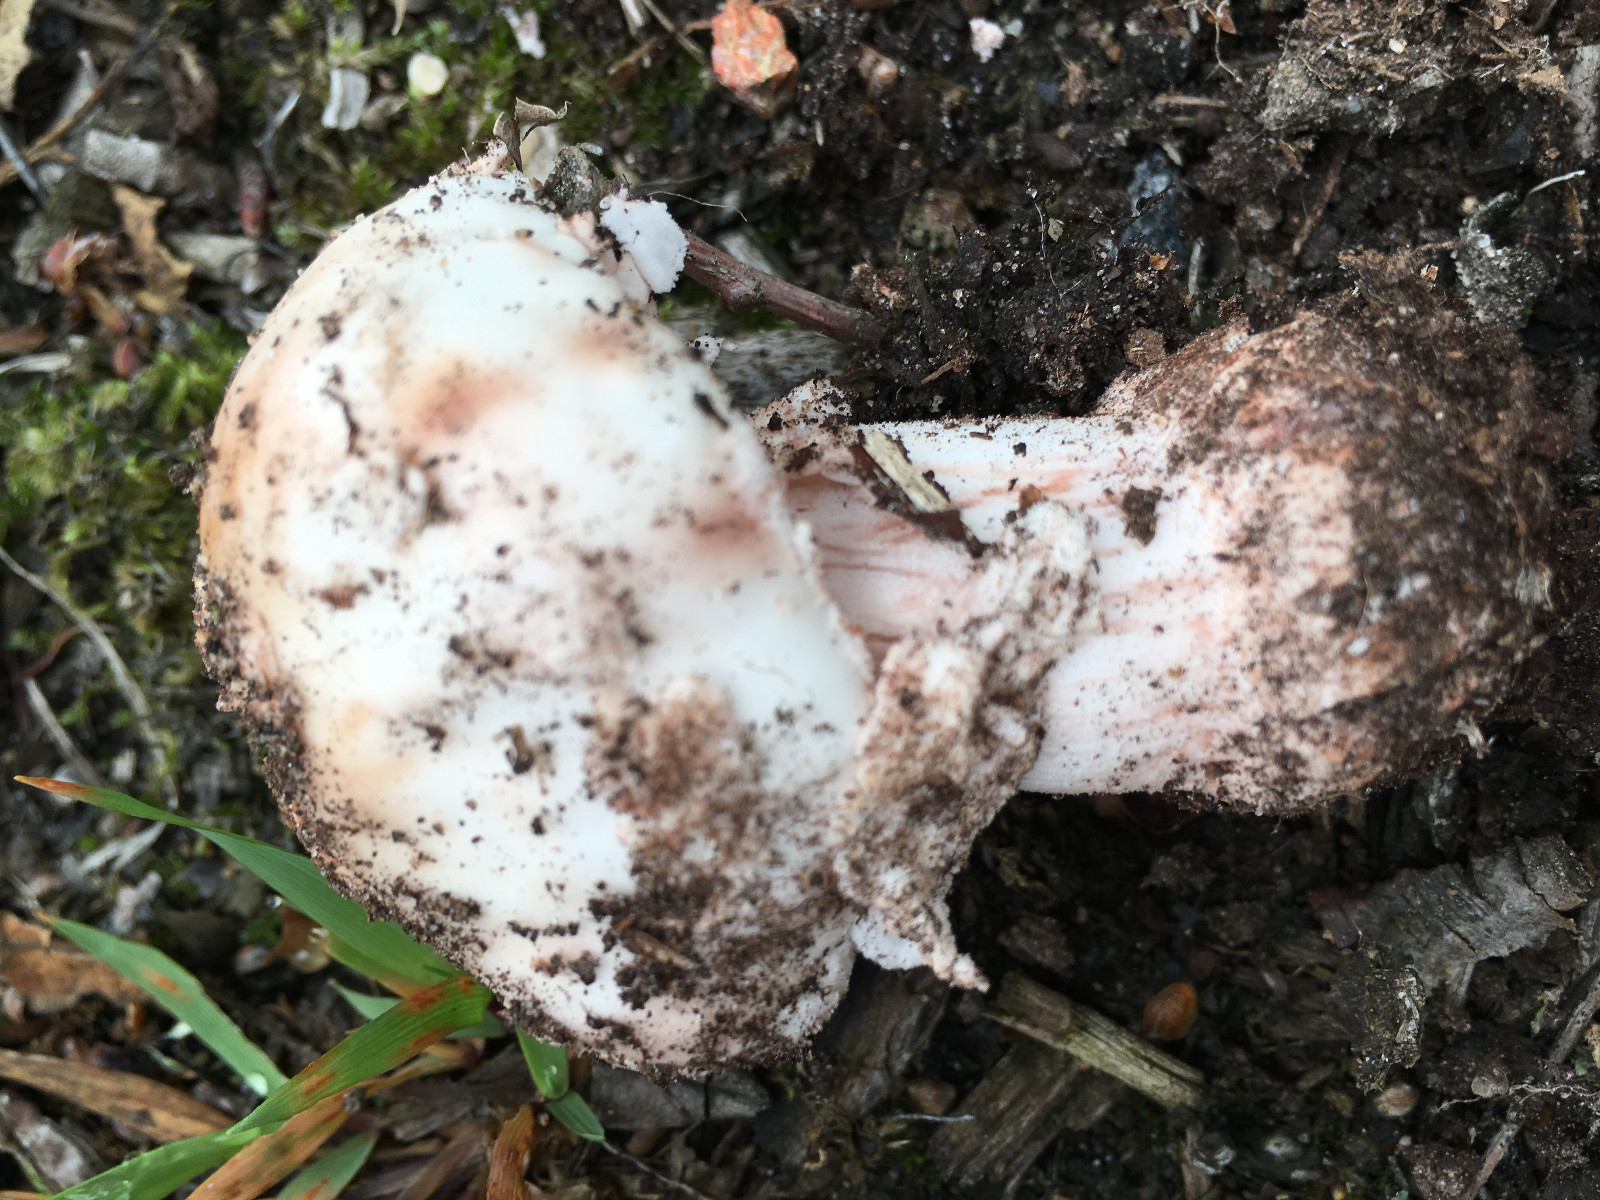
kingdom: Fungi
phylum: Basidiomycota
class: Agaricomycetes
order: Agaricales
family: Amanitaceae
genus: Amanita
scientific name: Amanita rubescens
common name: rødmende fluesvamp
